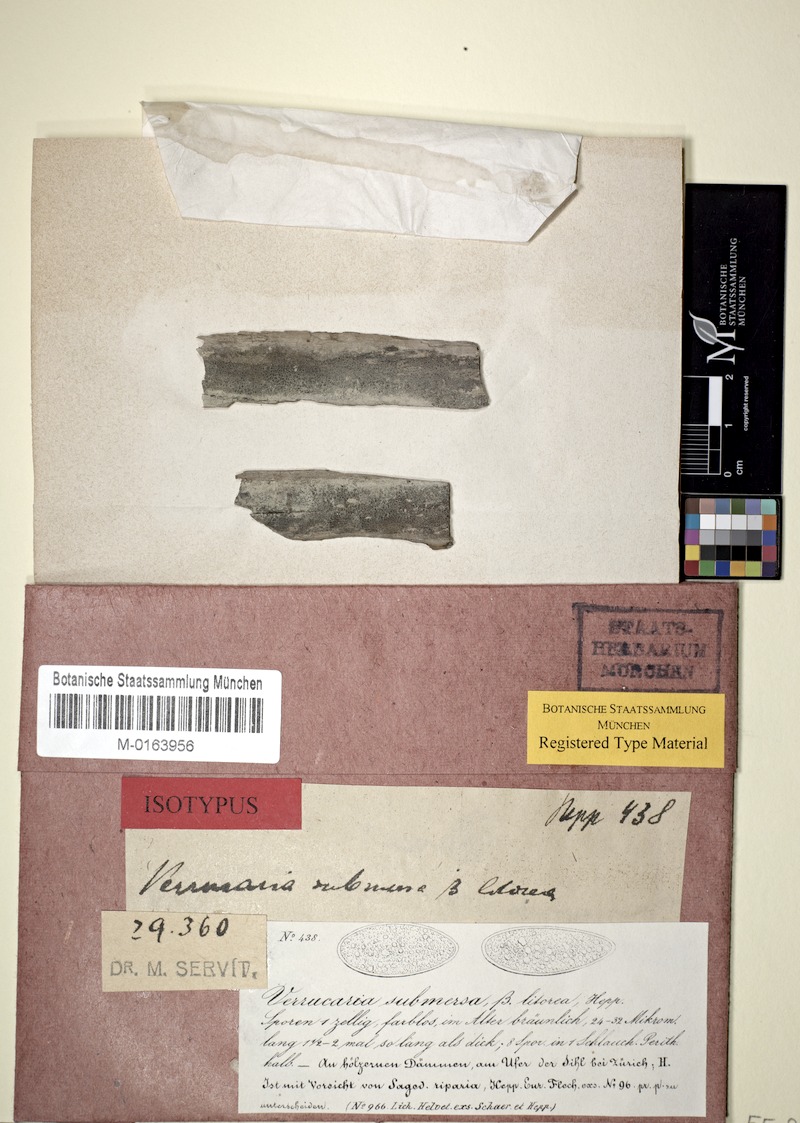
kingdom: Fungi
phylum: Ascomycota
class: Eurotiomycetes
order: Verrucariales
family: Verrucariaceae
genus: Verrucaria
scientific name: Verrucaria hydrela
